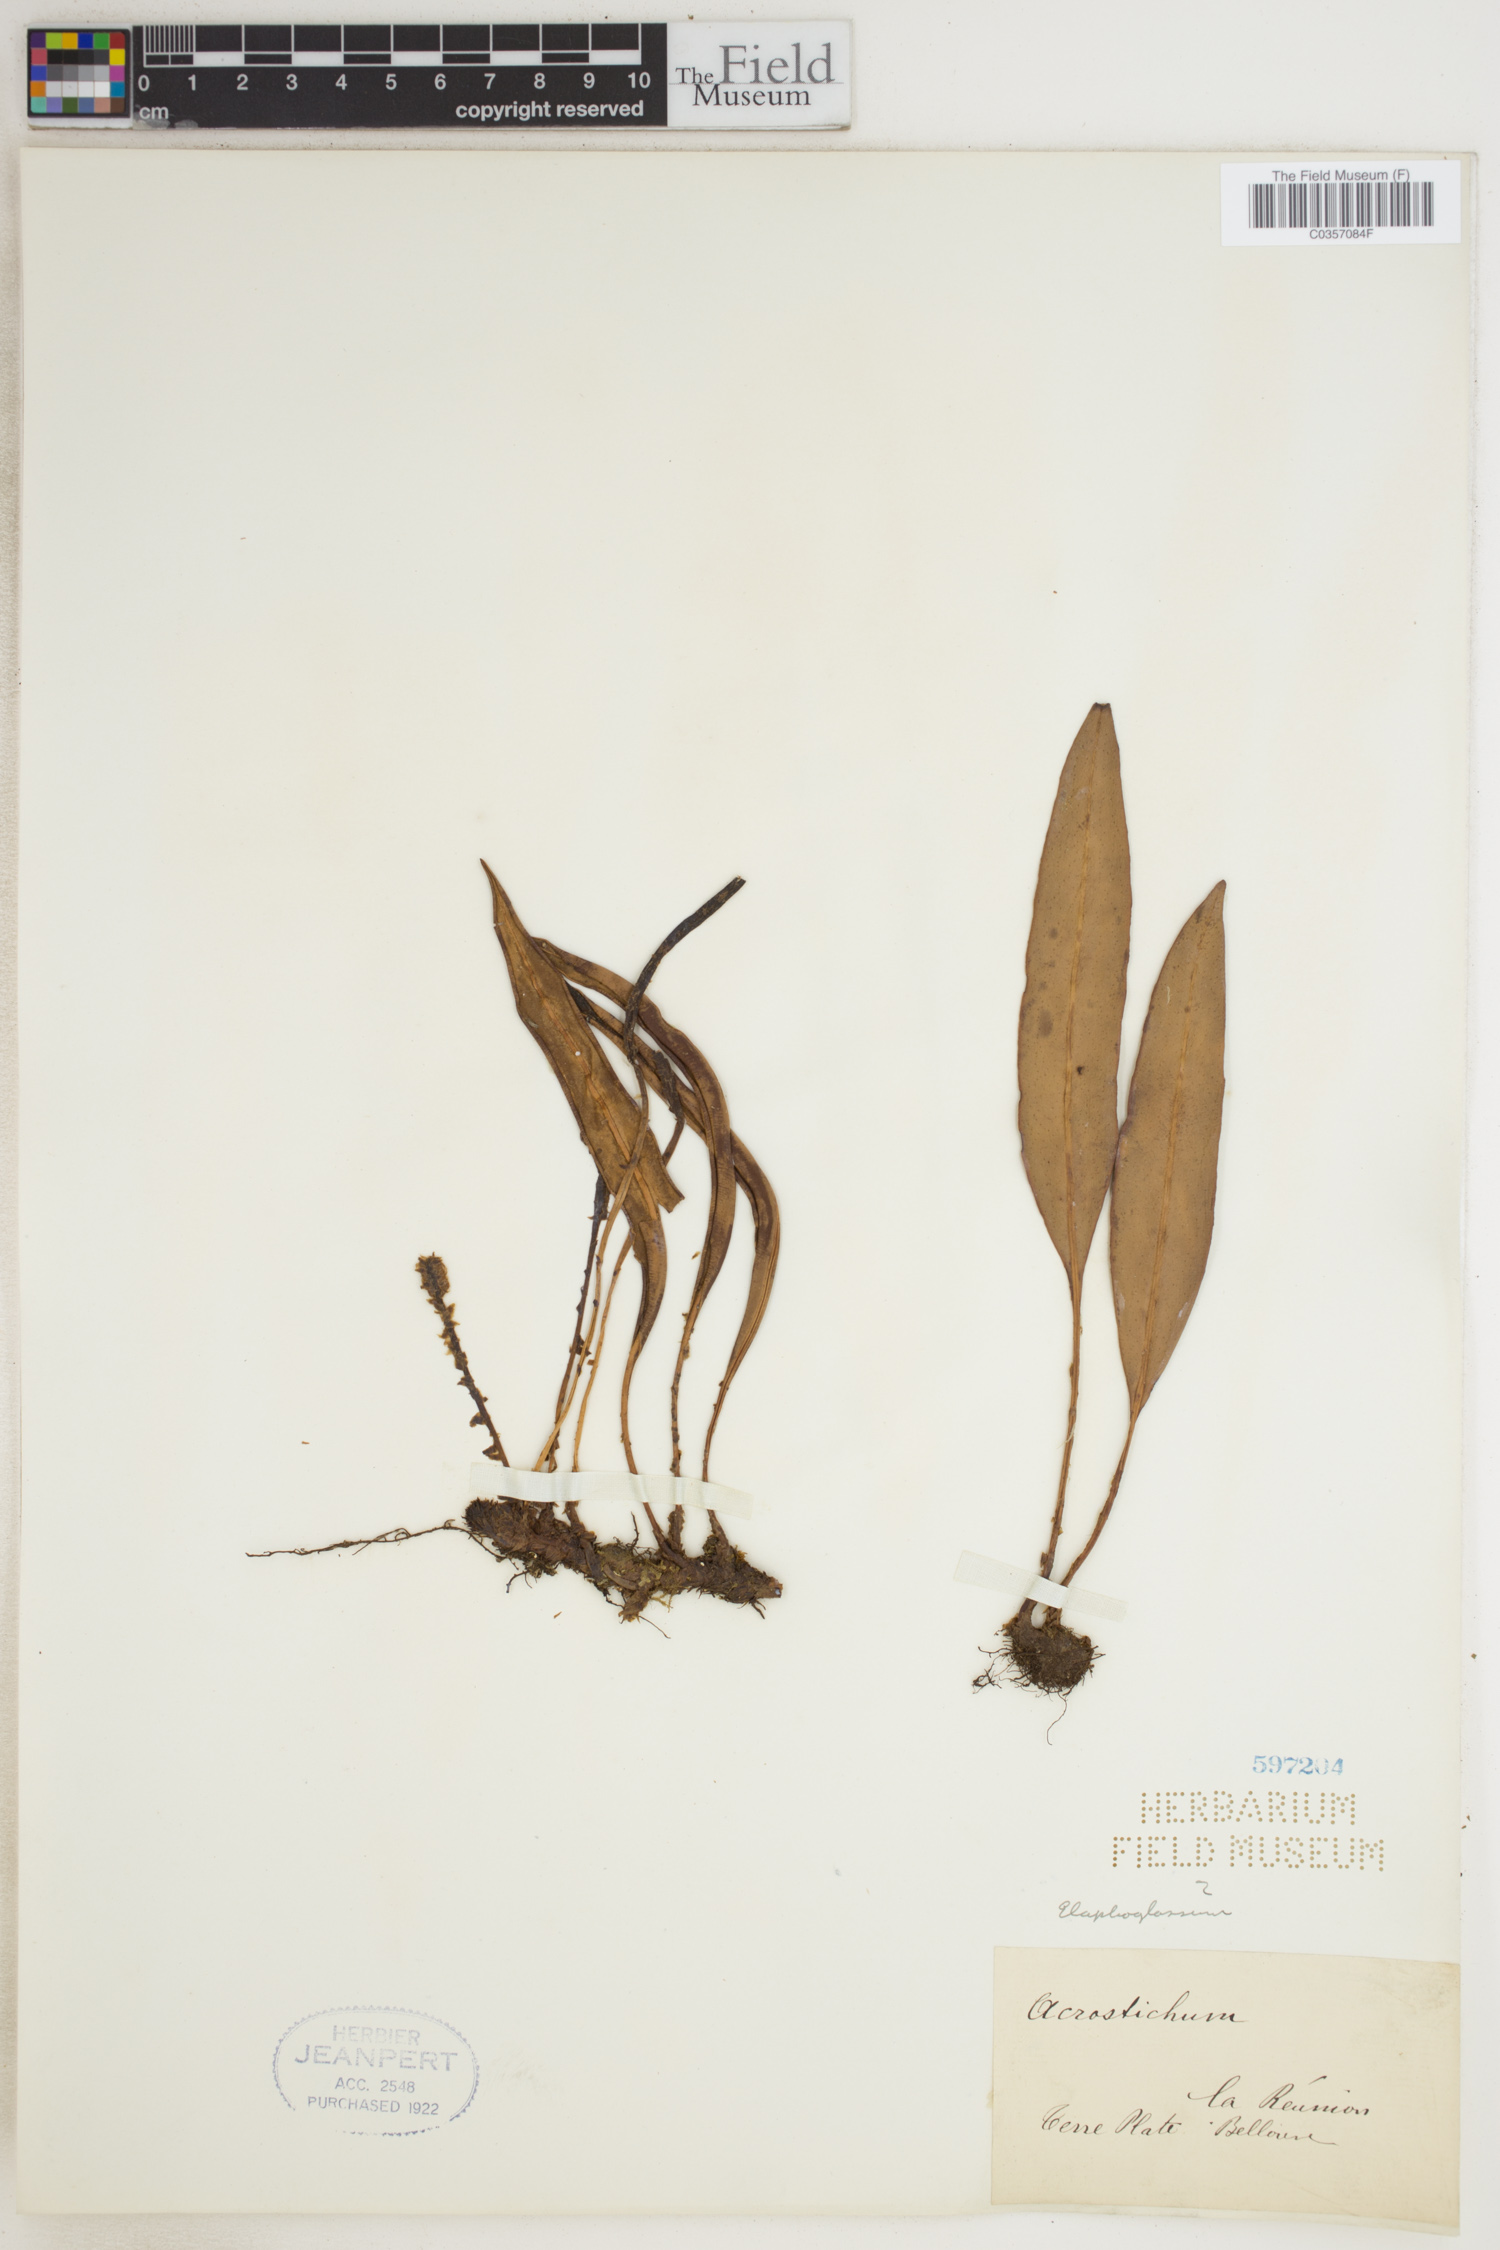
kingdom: Plantae
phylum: Tracheophyta
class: Polypodiopsida
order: Polypodiales
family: Pteridaceae
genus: Acrostichum
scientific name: Acrostichum
